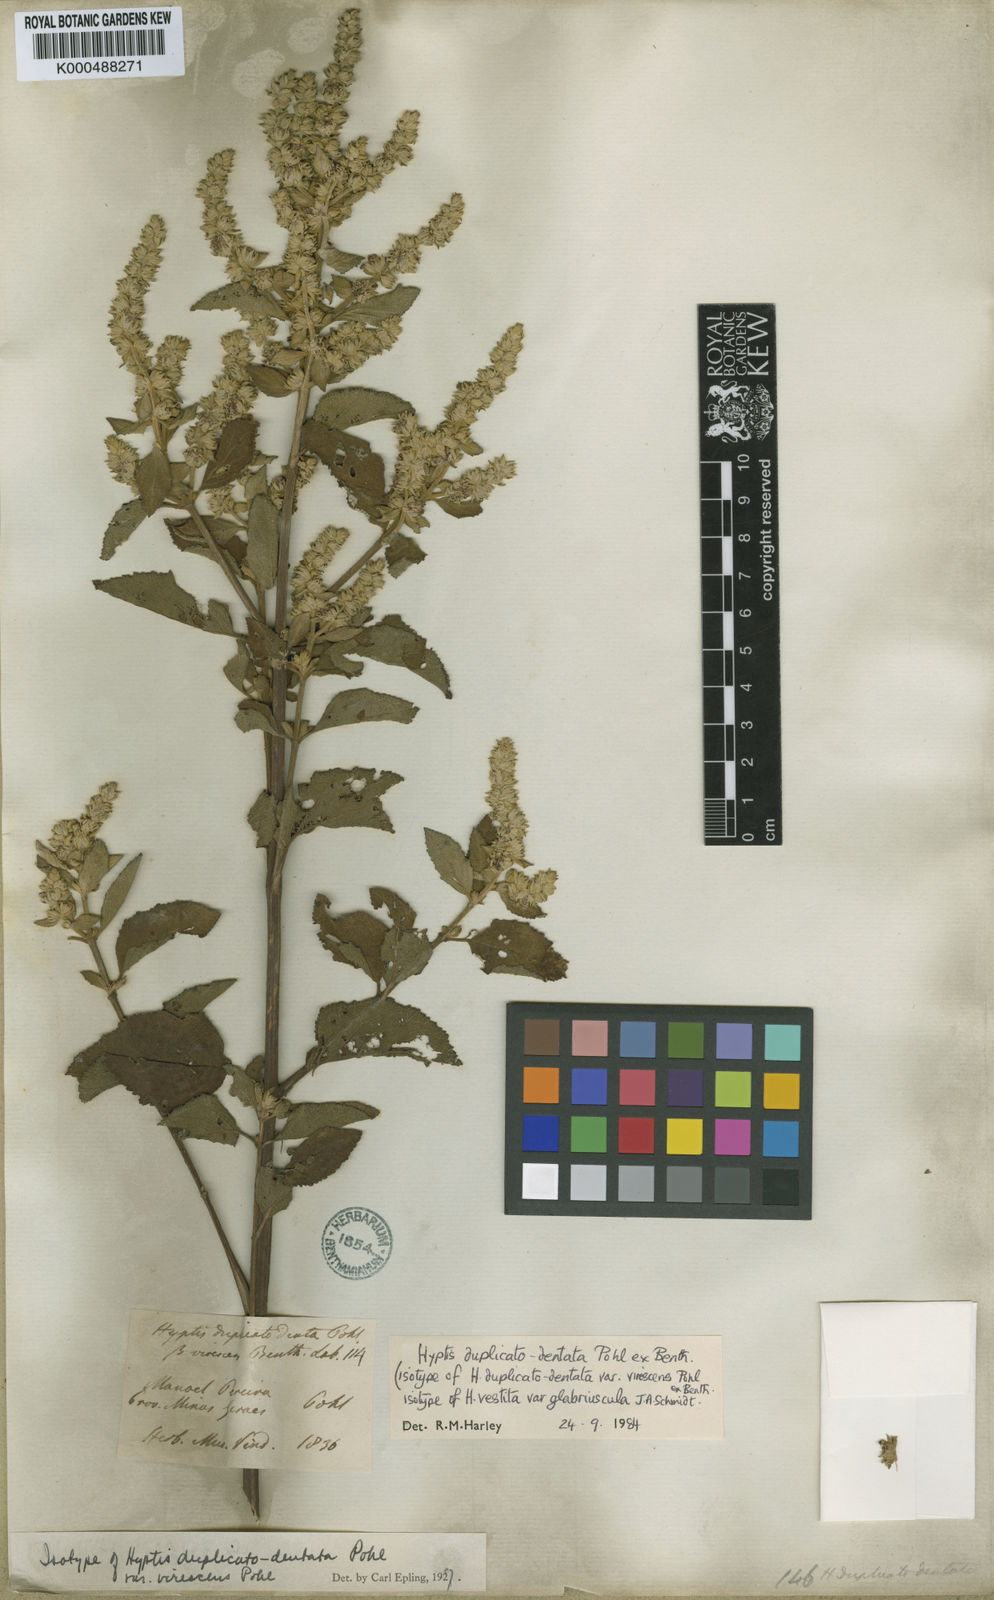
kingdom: Plantae
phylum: Tracheophyta
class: Magnoliopsida
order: Lamiales
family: Lamiaceae
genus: Cantinoa
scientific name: Cantinoa duplicatodentata
